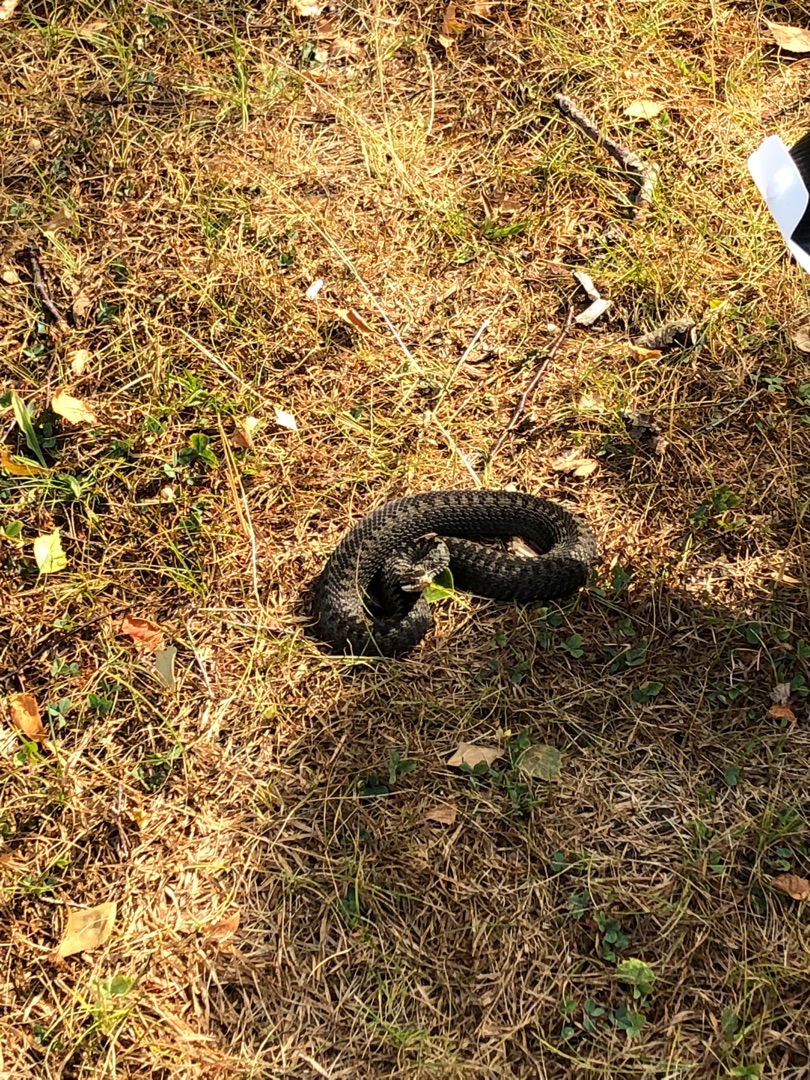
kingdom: Animalia
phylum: Chordata
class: Squamata
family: Viperidae
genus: Vipera
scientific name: Vipera berus
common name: Hugorm
